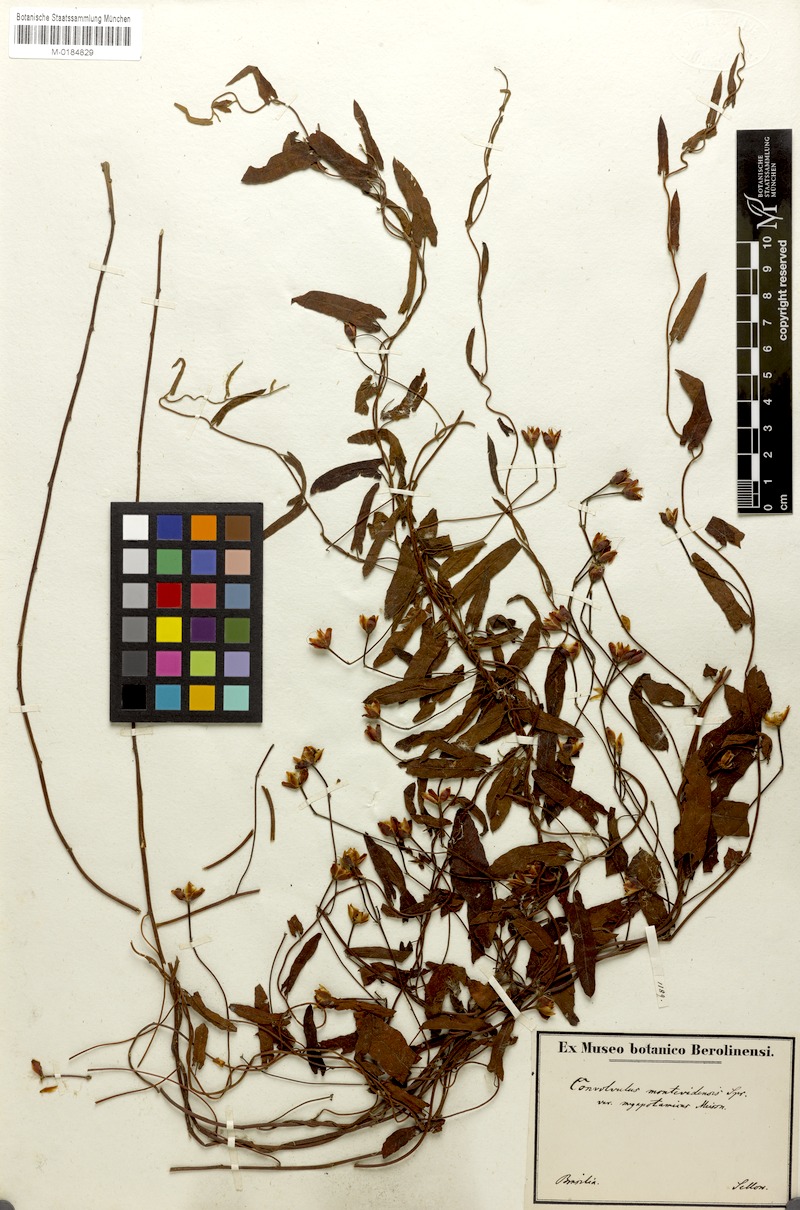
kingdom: Plantae
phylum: Tracheophyta
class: Magnoliopsida
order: Solanales
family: Convolvulaceae
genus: Convolvulus
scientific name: Convolvulus crenatifolius
